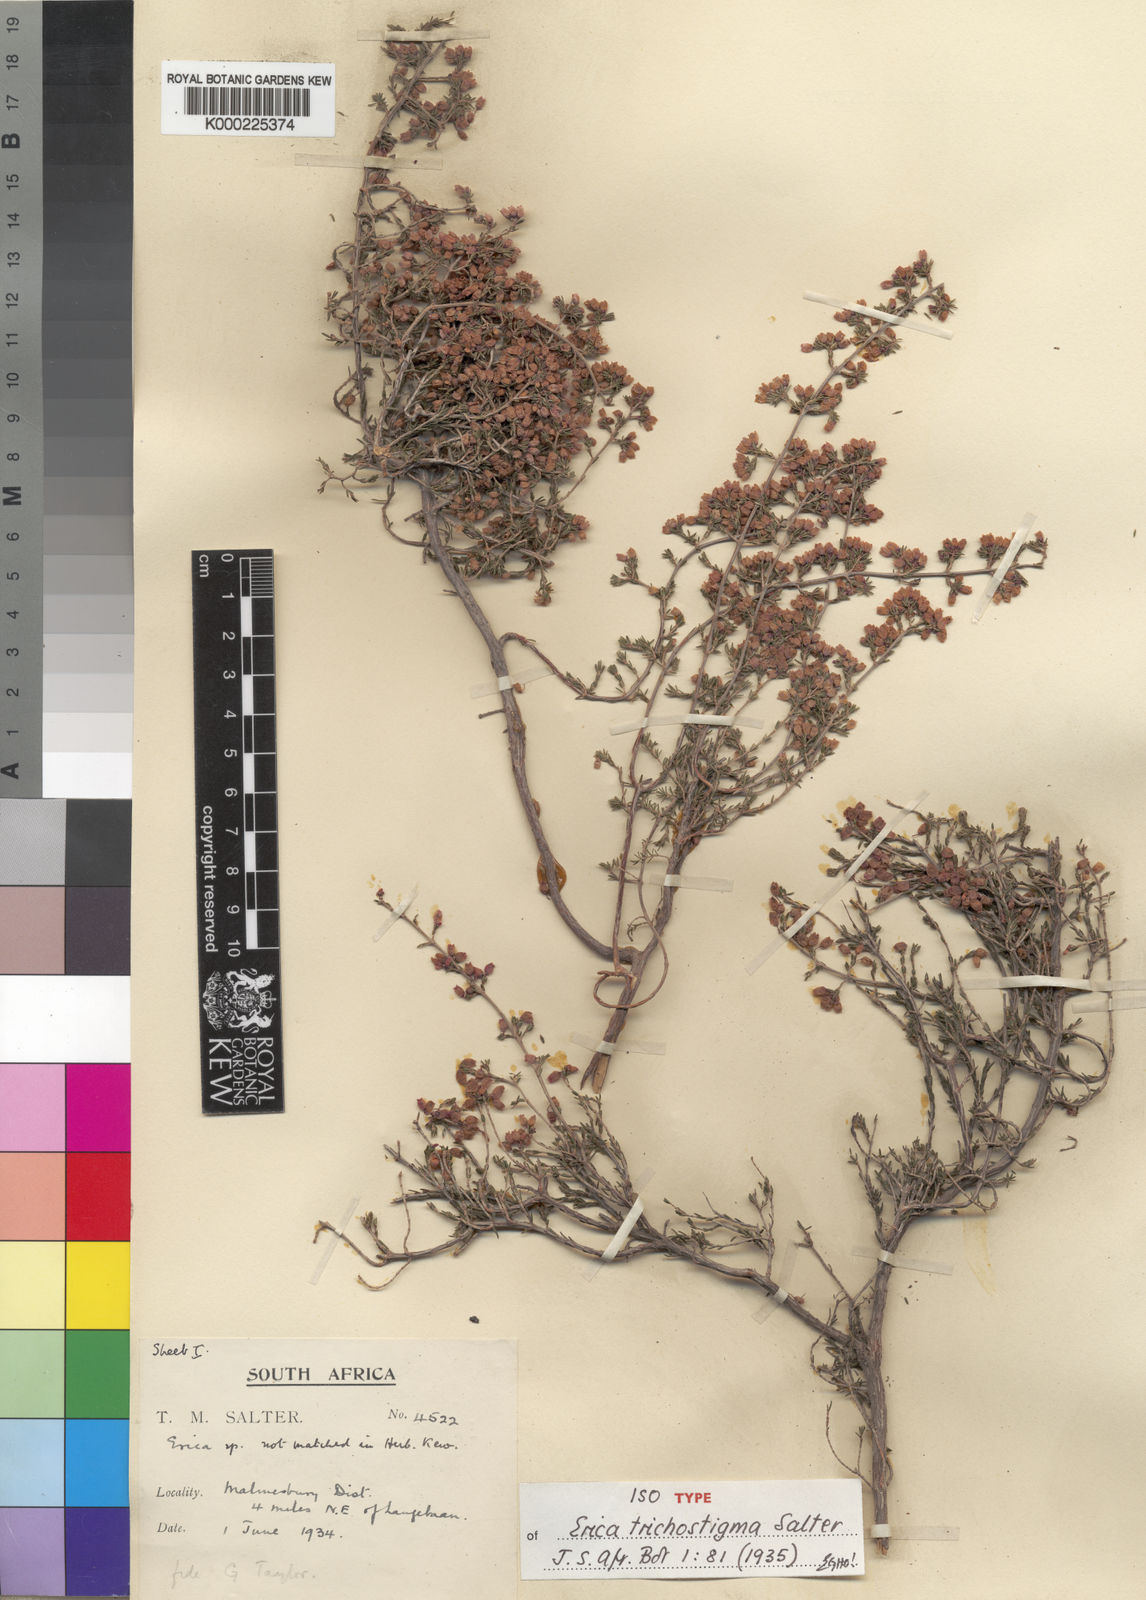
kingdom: Plantae
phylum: Tracheophyta
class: Magnoliopsida
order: Ericales
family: Ericaceae
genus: Erica
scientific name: Erica trichostigma
